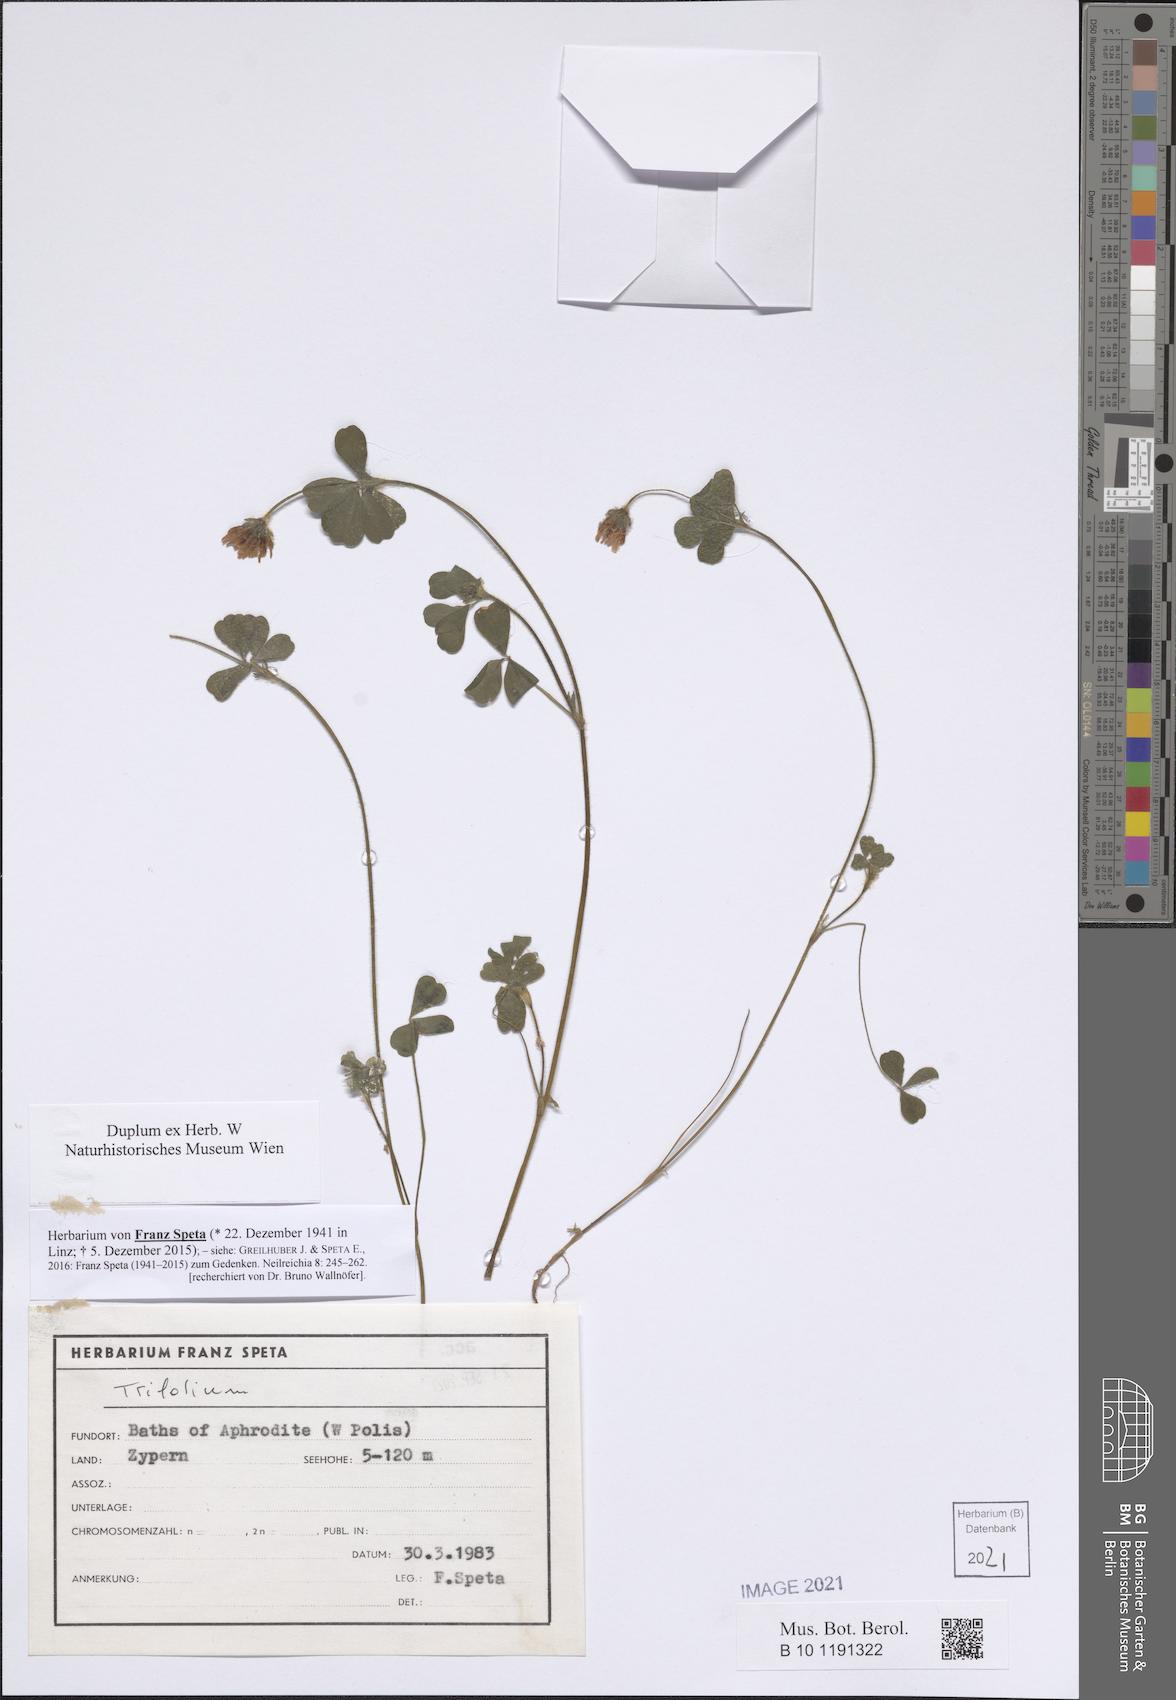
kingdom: Plantae
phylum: Tracheophyta
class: Magnoliopsida
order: Fabales
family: Fabaceae
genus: Trifolium
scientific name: Trifolium
